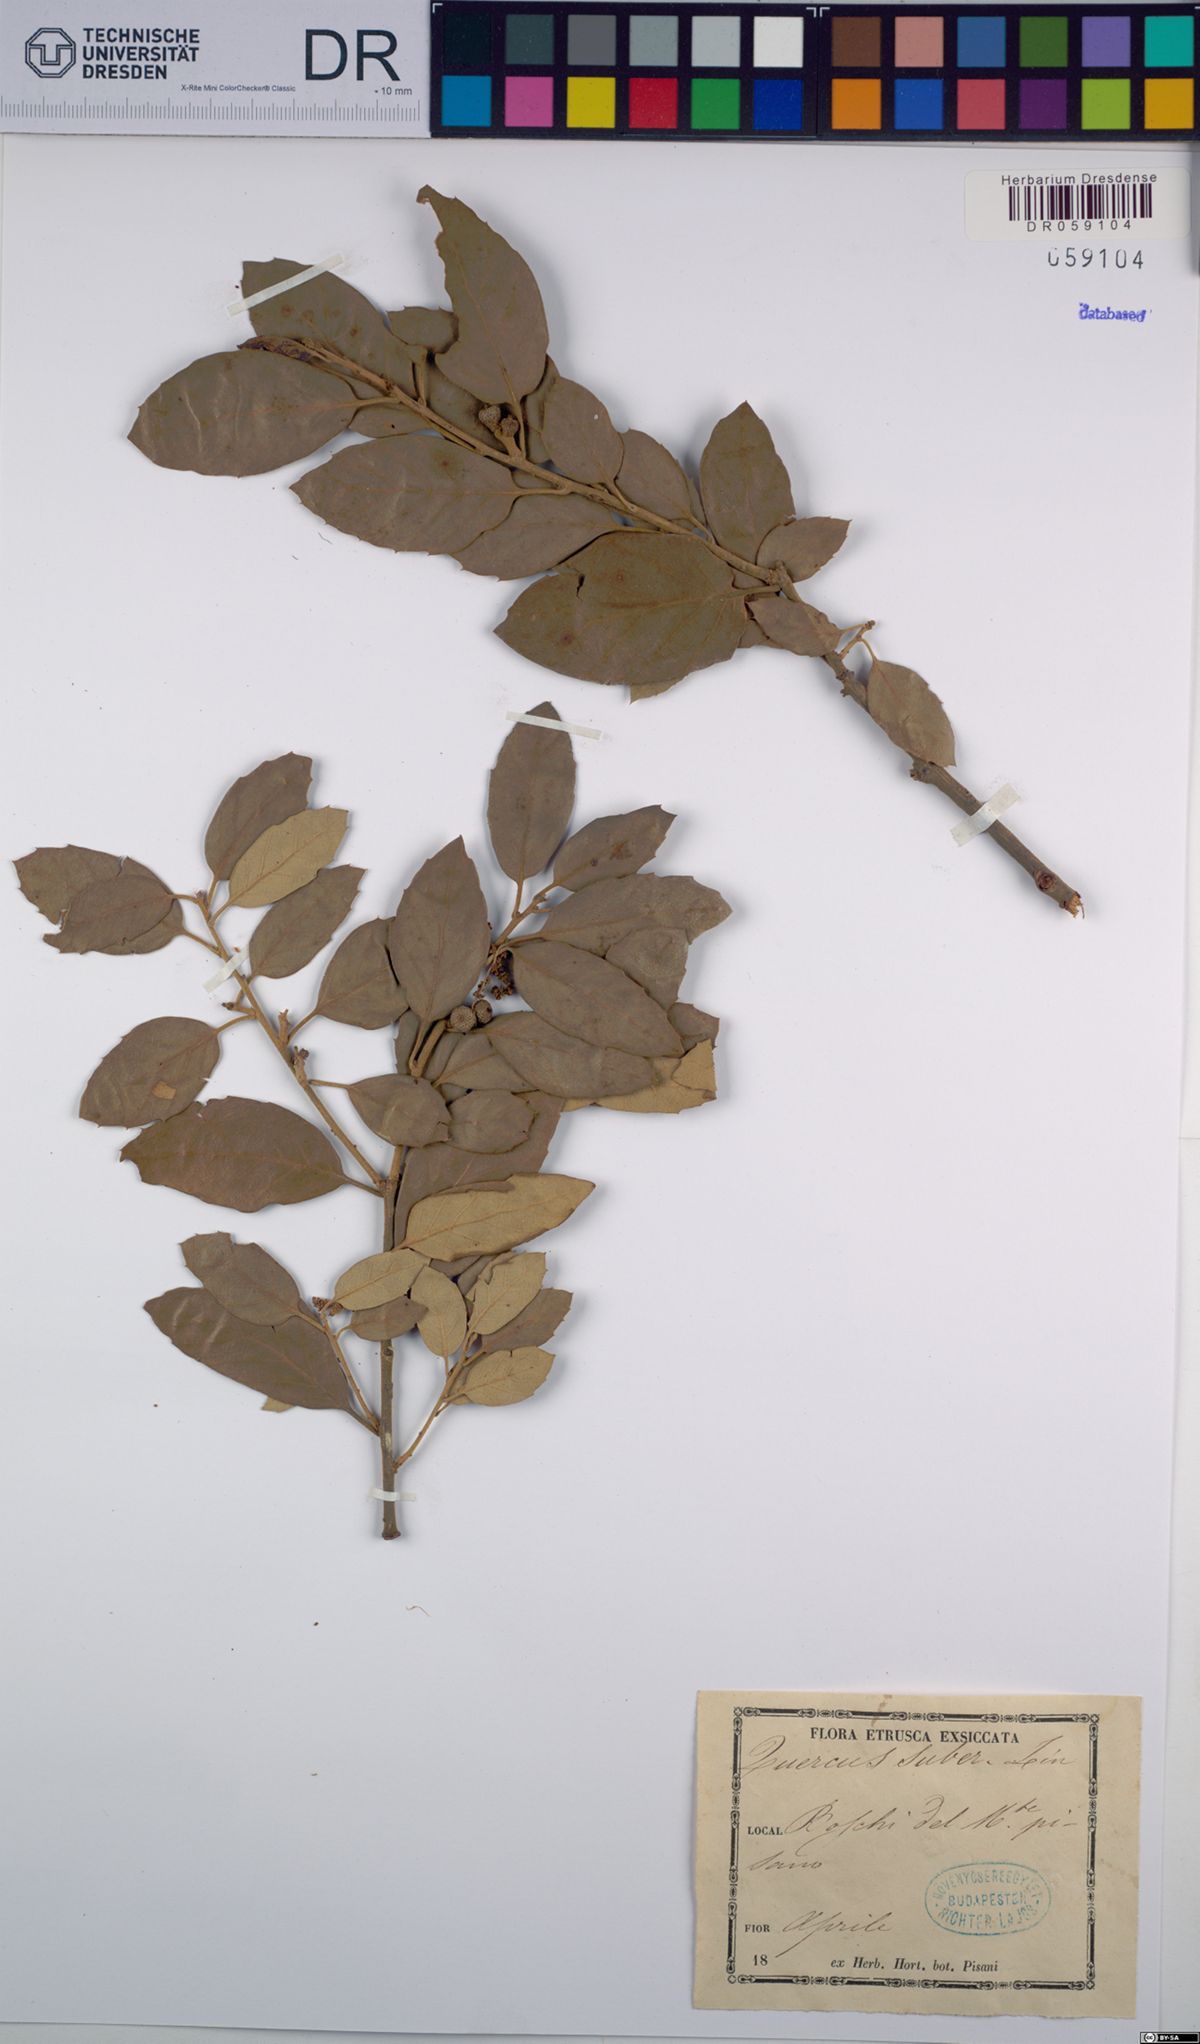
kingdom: Plantae
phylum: Tracheophyta
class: Magnoliopsida
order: Fagales
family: Fagaceae
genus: Quercus
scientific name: Quercus suber
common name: Cork oak
